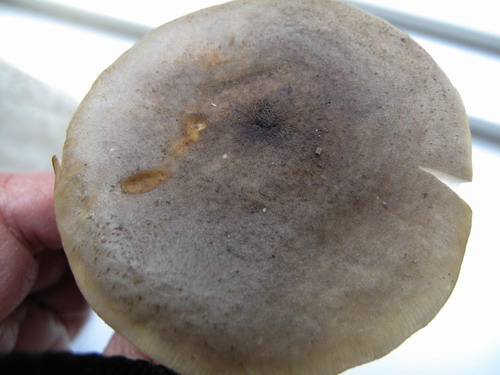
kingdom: Fungi
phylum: Basidiomycota
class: Agaricomycetes
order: Agaricales
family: Physalacriaceae
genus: Armillaria
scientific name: Armillaria mellea
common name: ægte honningsvamp
